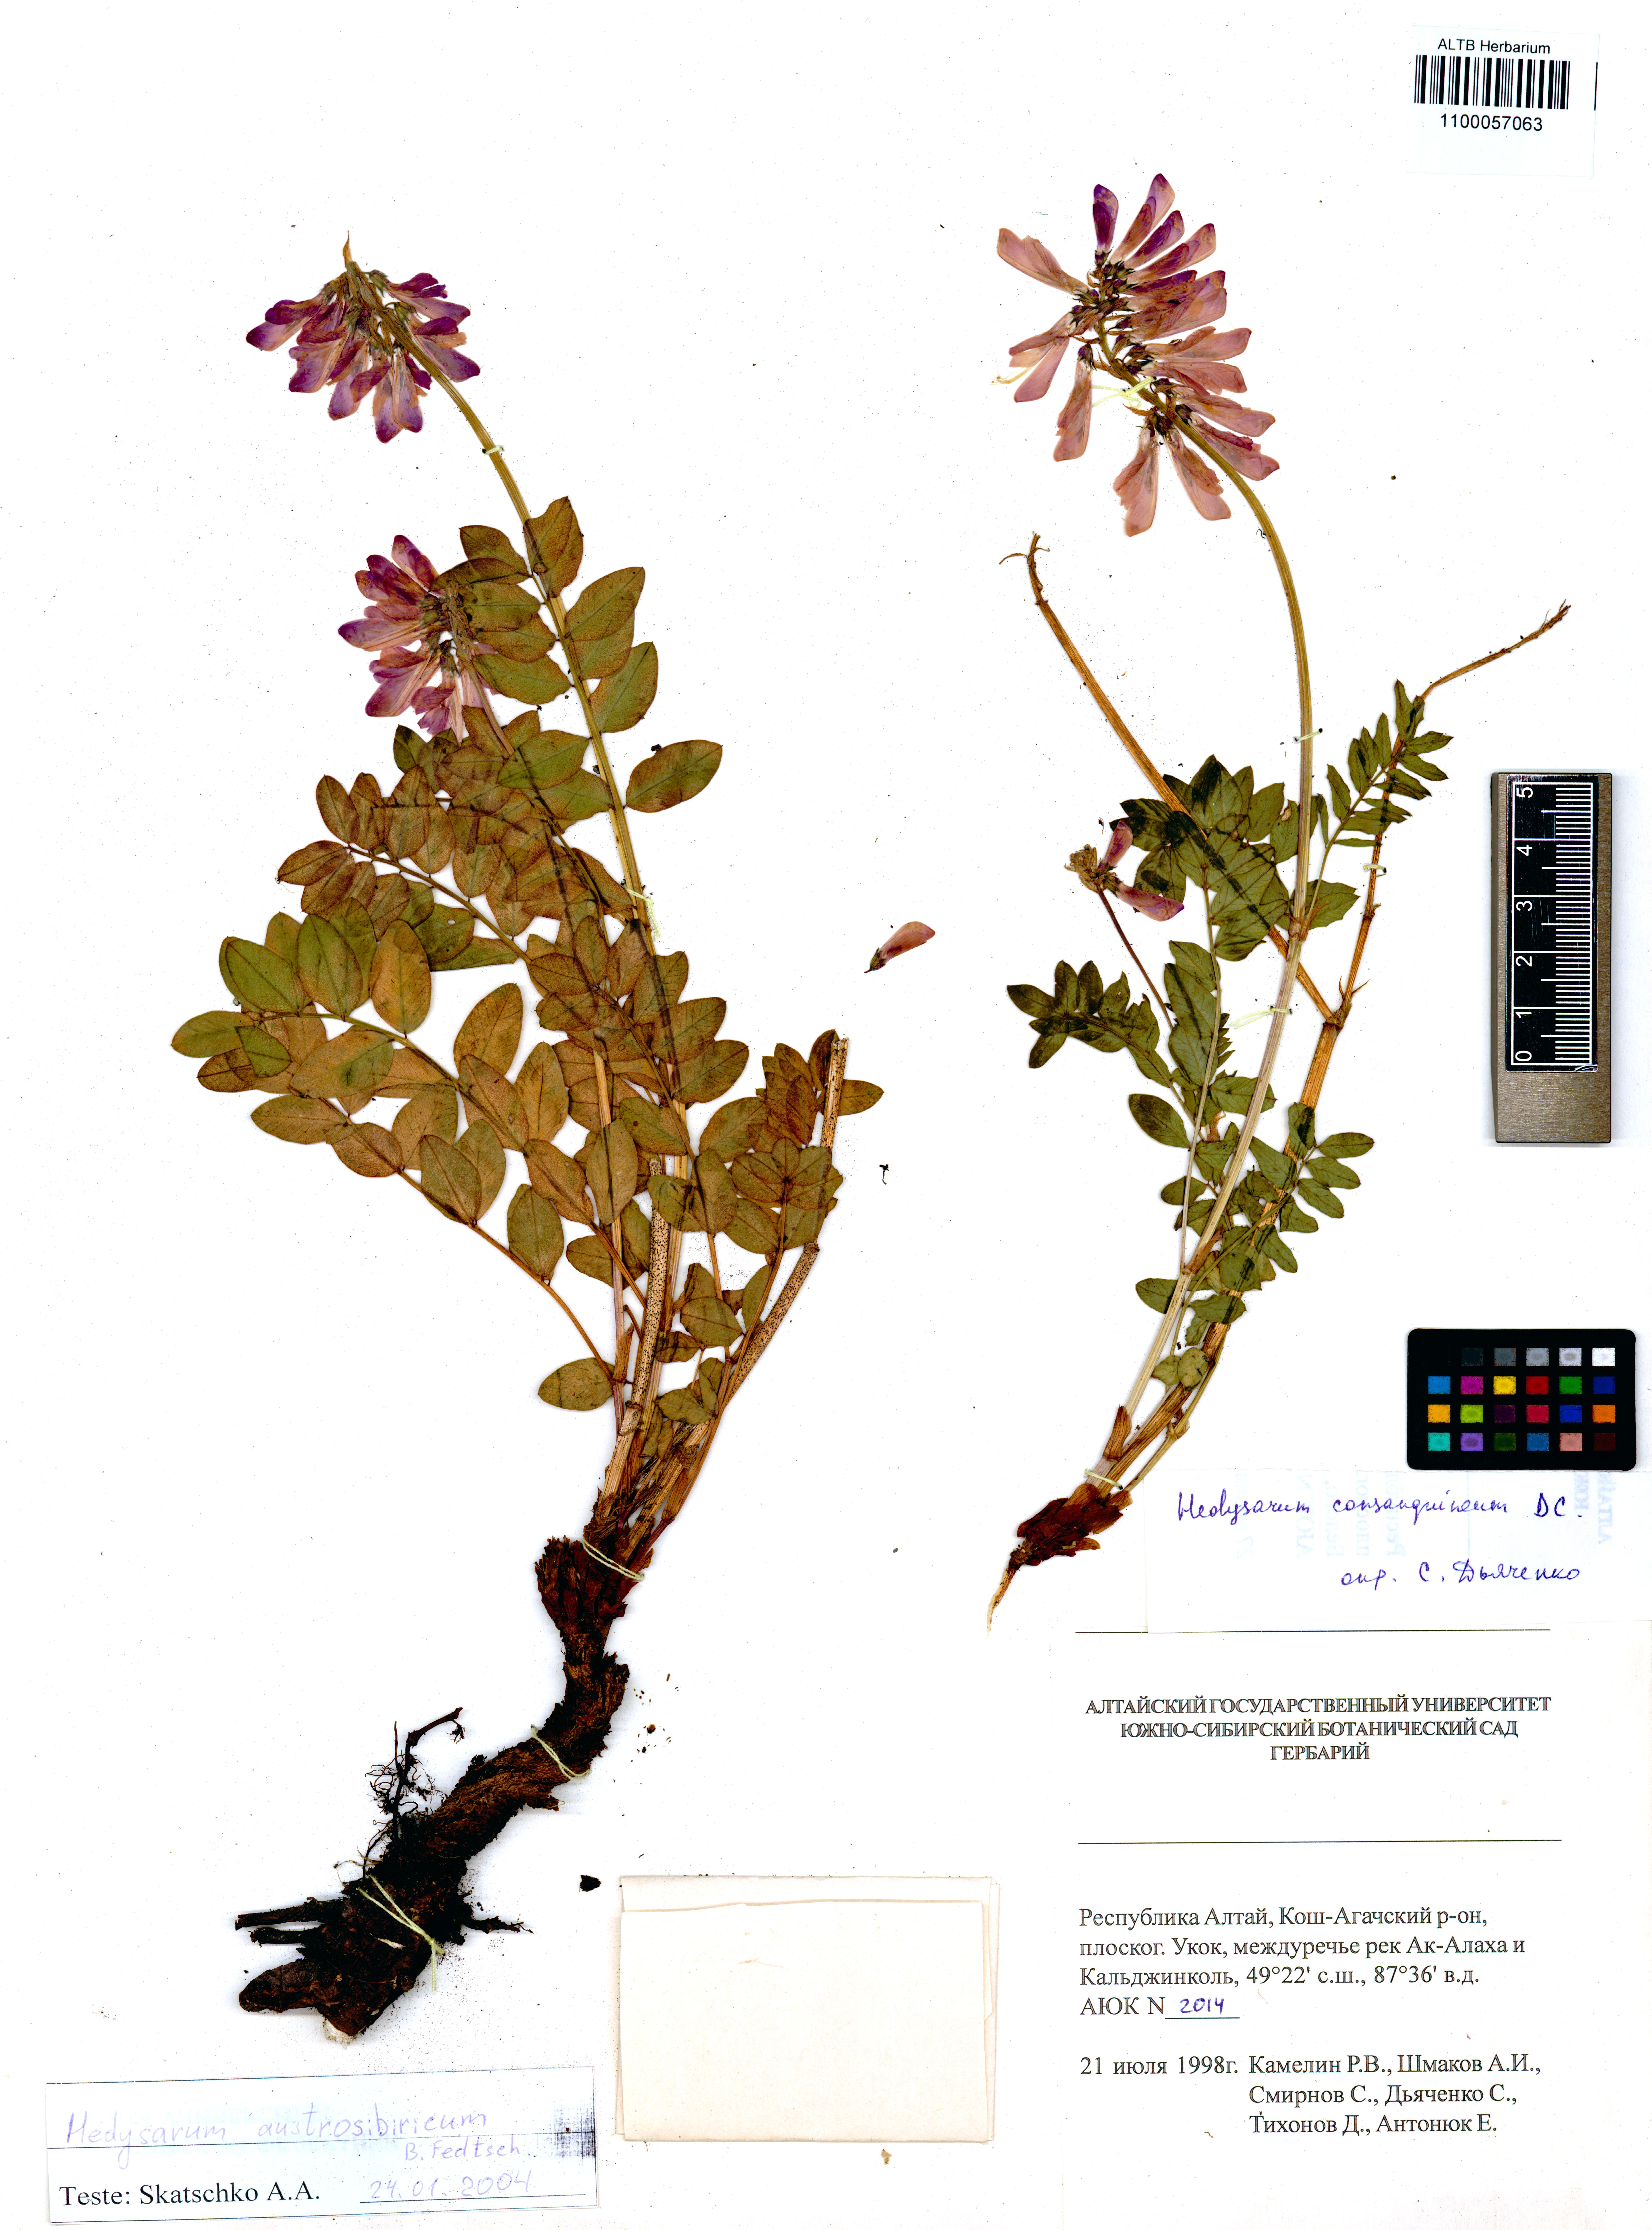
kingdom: Plantae
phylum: Tracheophyta
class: Magnoliopsida
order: Fabales
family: Fabaceae
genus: Hedysarum
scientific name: Hedysarum neglectum
